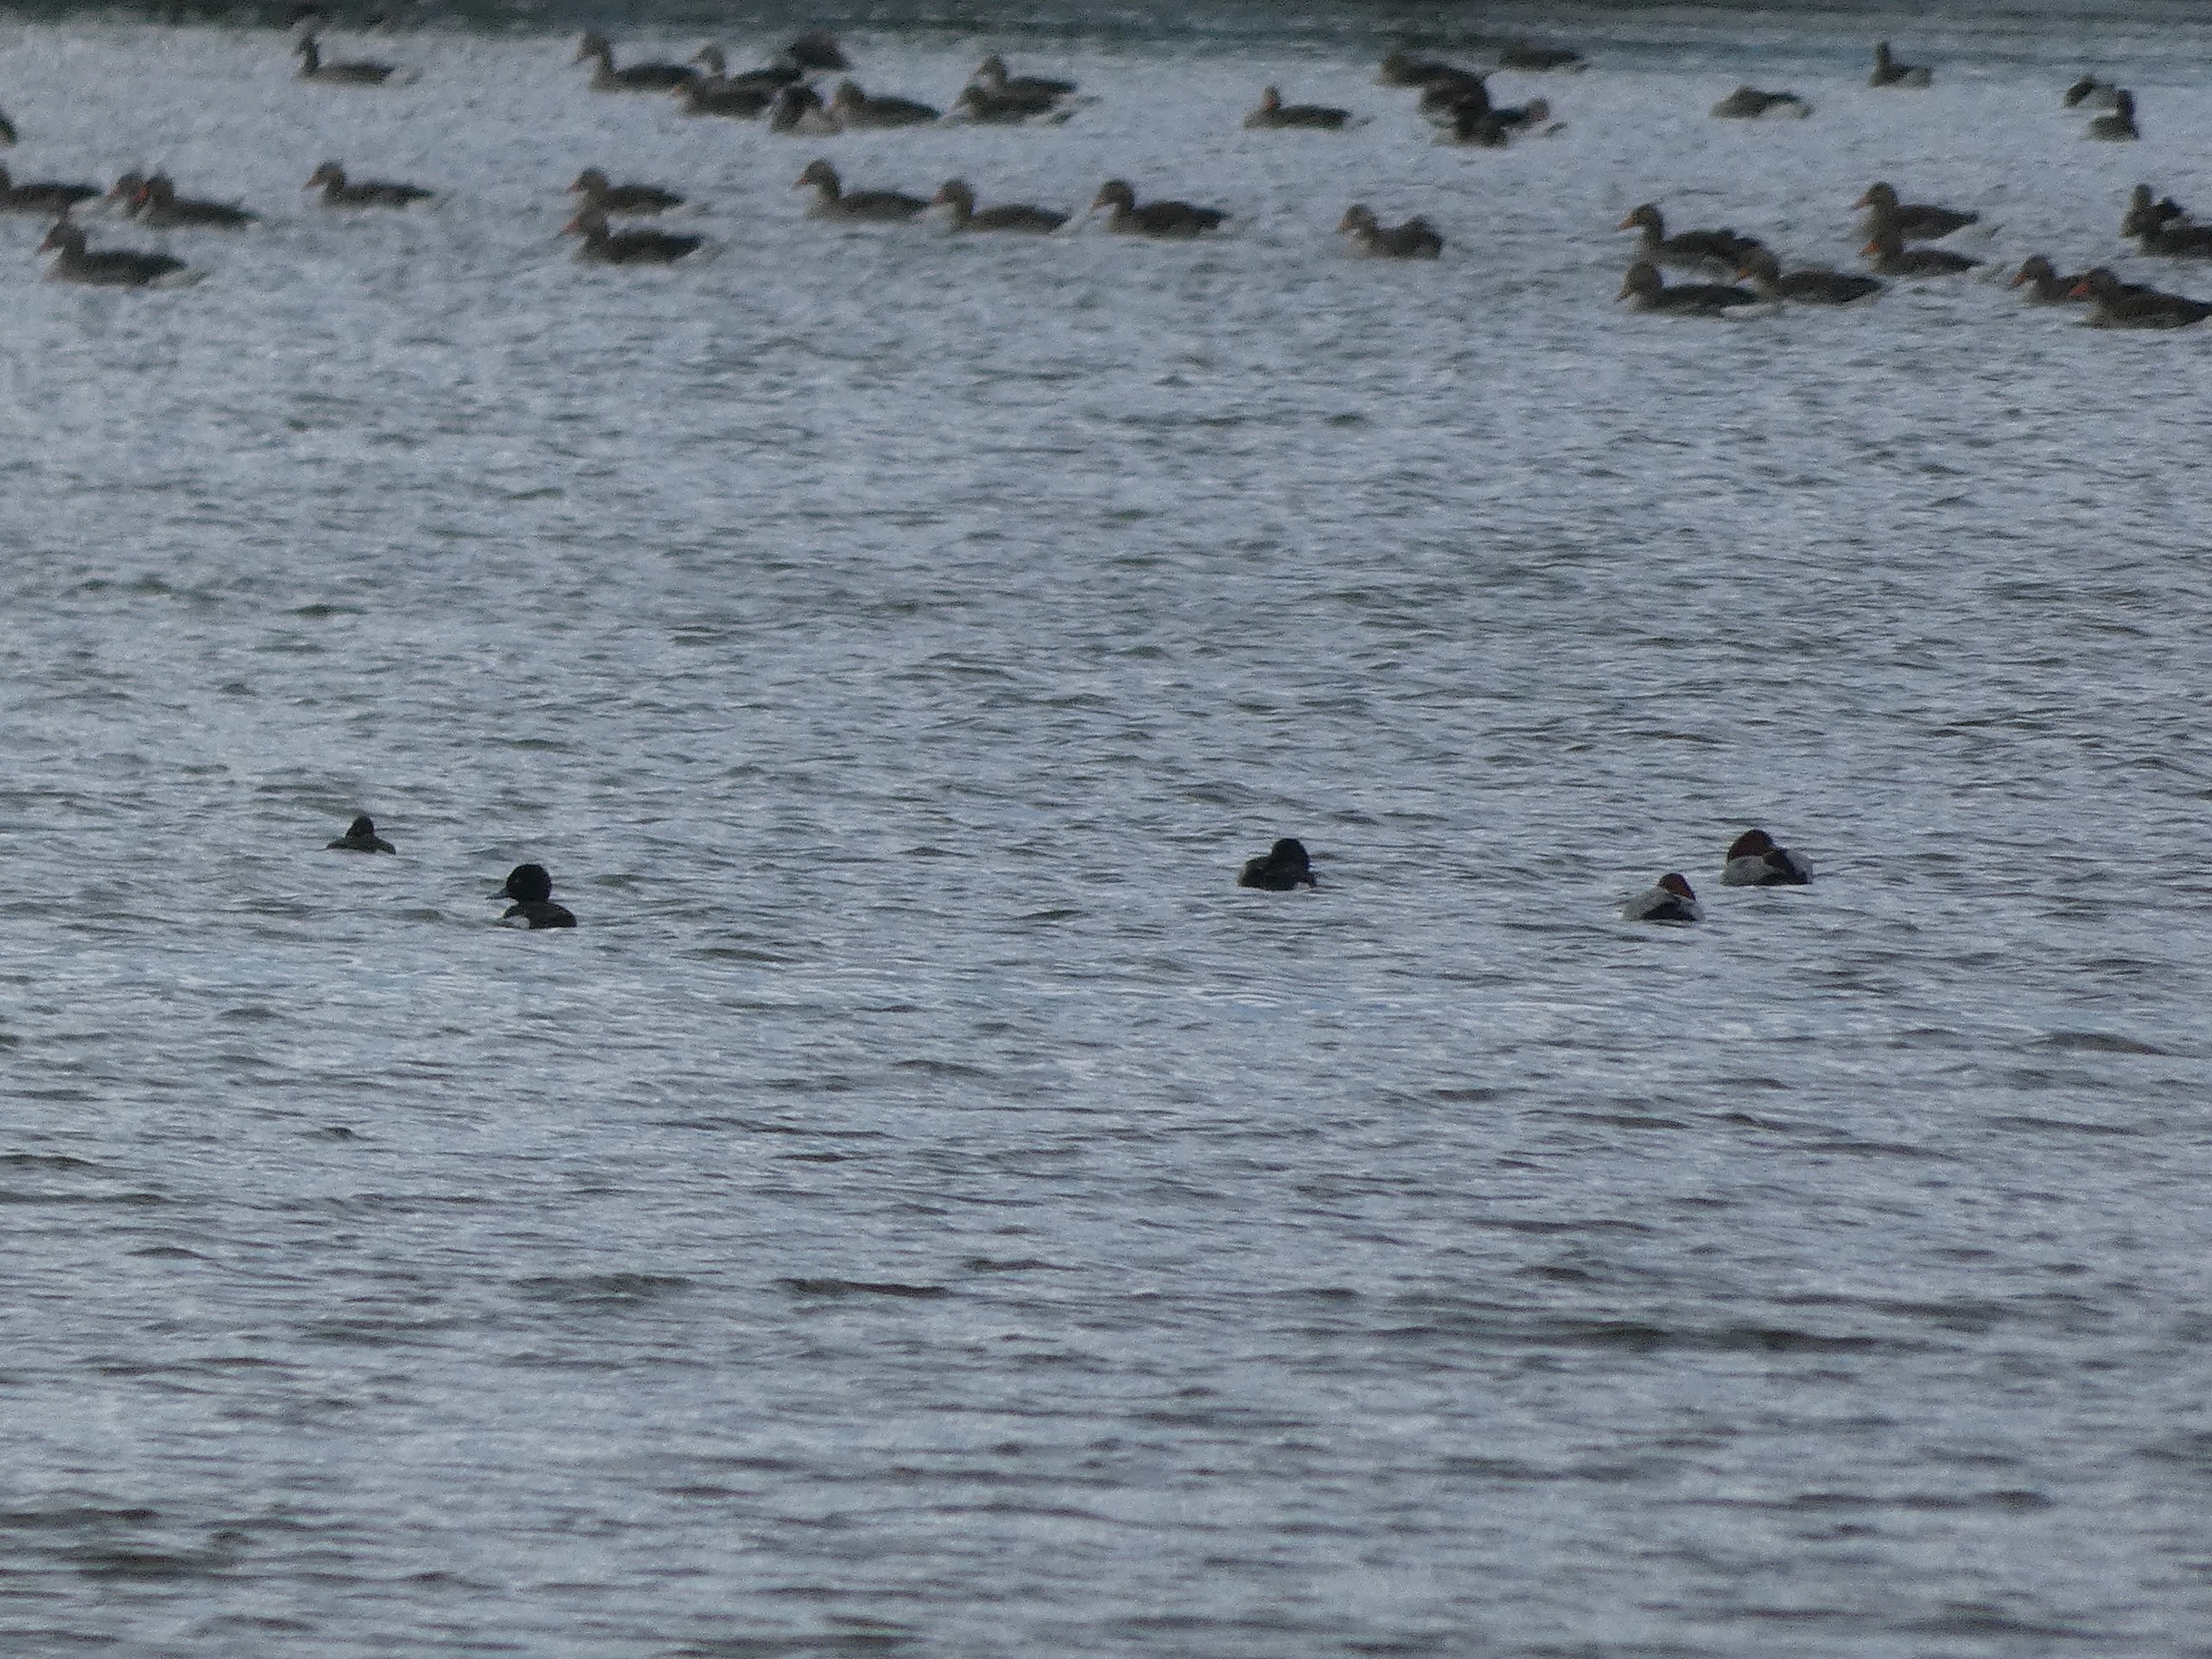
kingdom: Animalia
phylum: Chordata
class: Aves
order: Anseriformes
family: Anatidae
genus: Aythya
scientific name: Aythya ferina
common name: Taffeland
